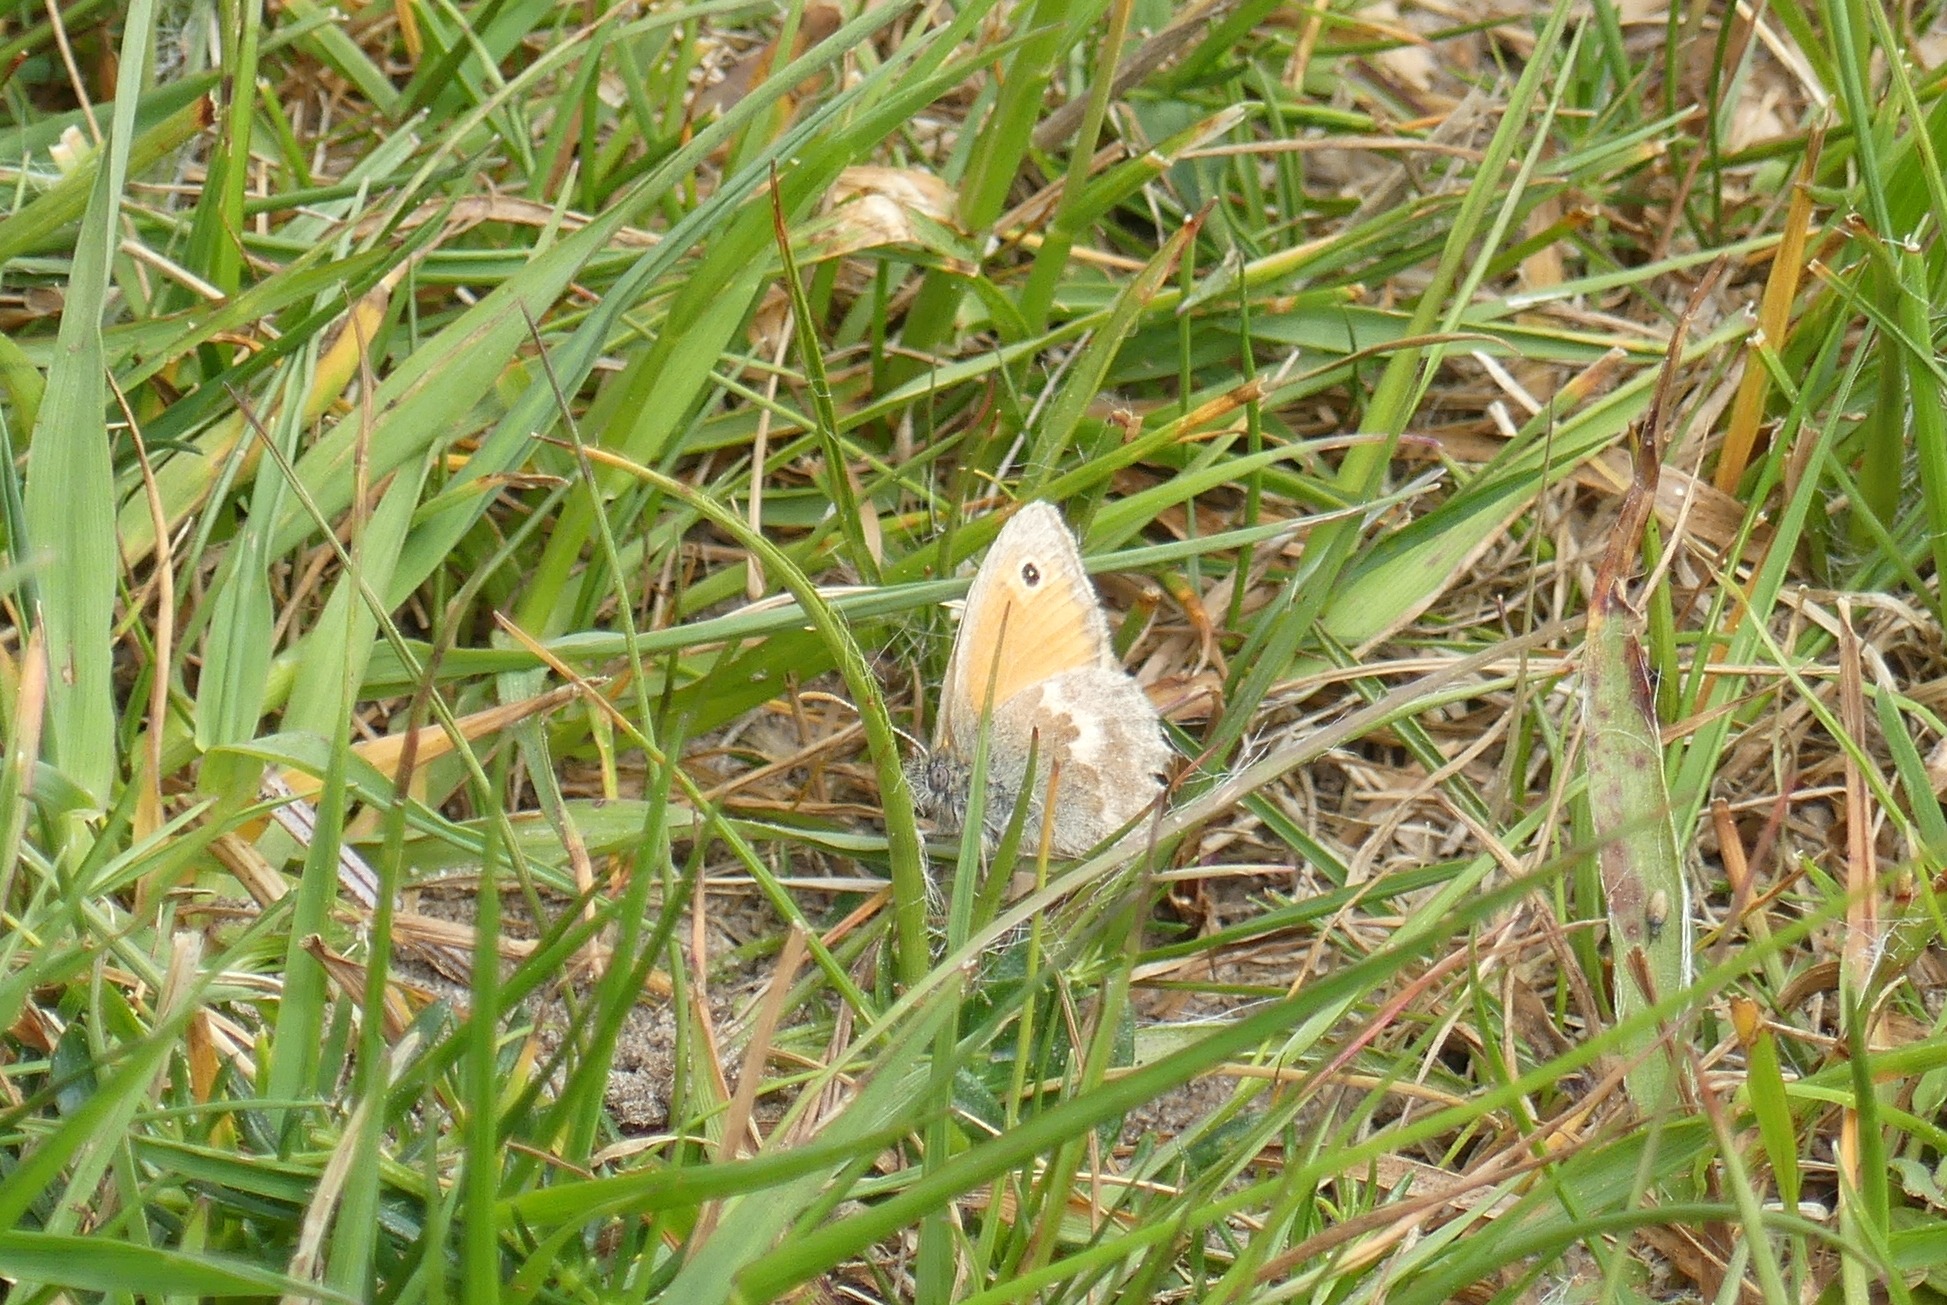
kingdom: Animalia
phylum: Arthropoda
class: Insecta
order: Lepidoptera
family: Nymphalidae
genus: Coenonympha
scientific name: Coenonympha pamphilus
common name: Okkergul randøje
